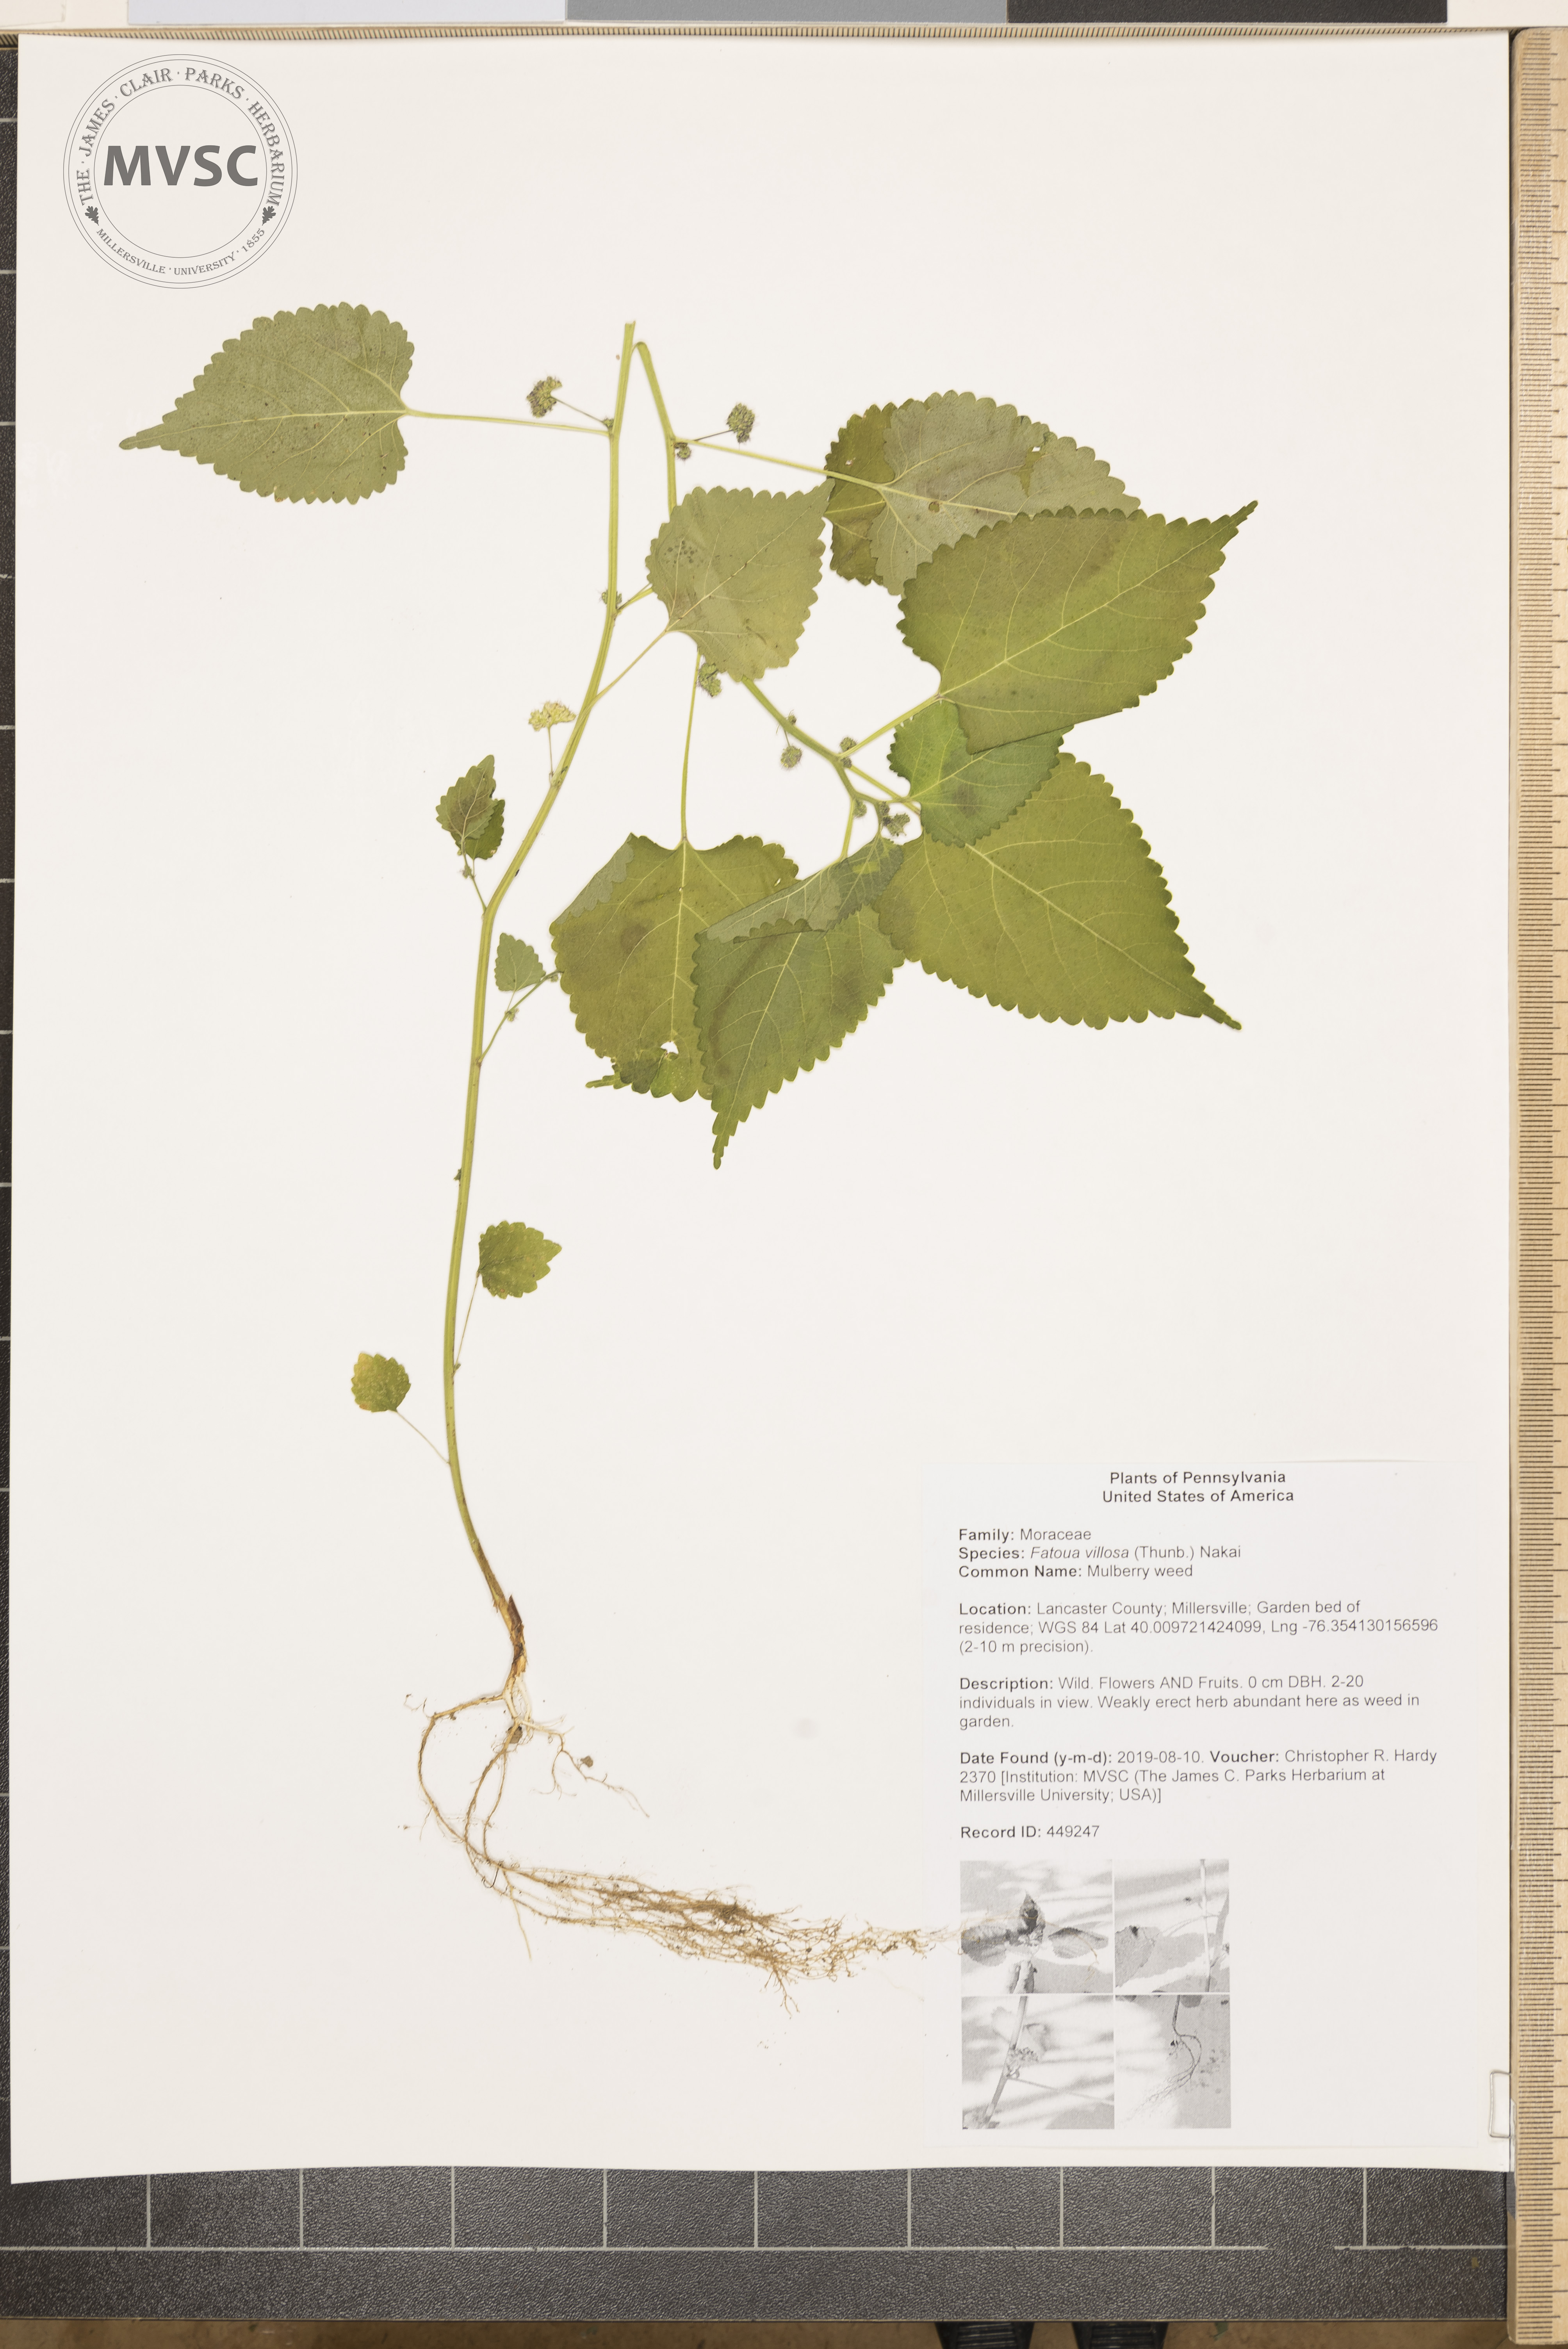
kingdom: Plantae
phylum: Tracheophyta
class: Magnoliopsida
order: Rosales
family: Moraceae
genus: Fatoua
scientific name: Fatoua villosa
